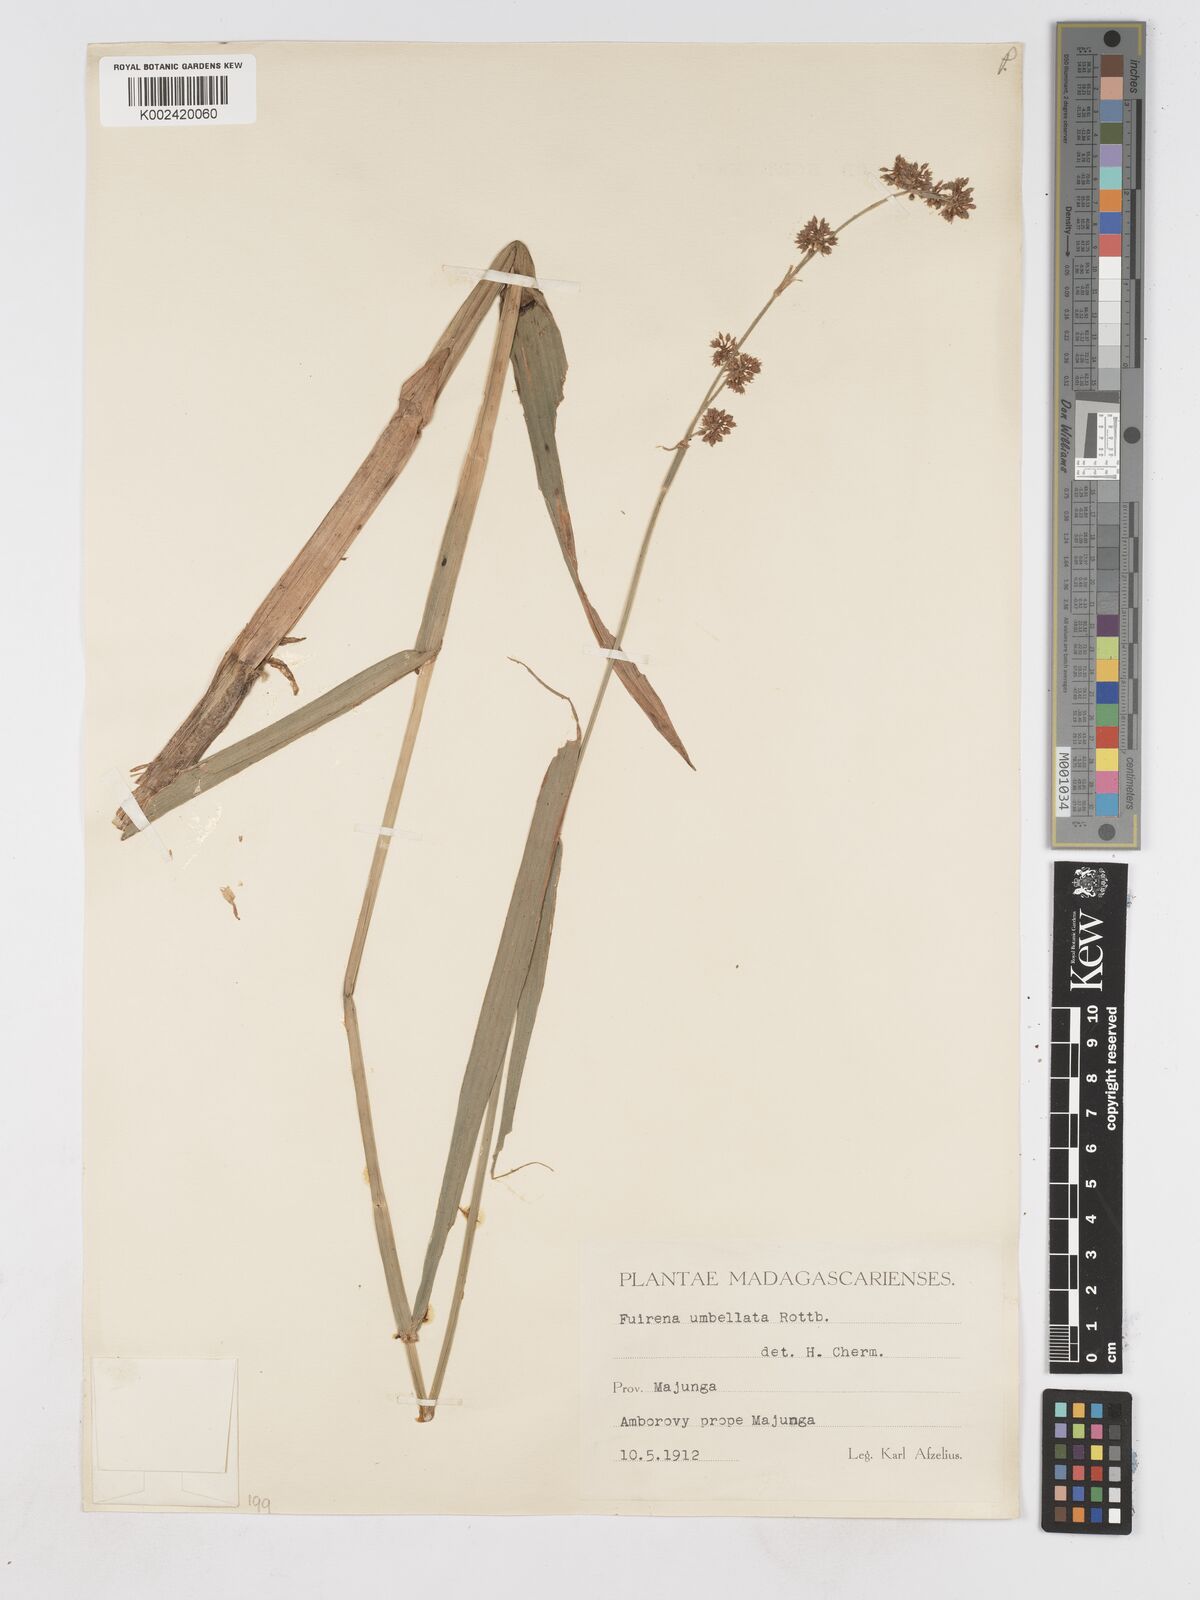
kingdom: Plantae
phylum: Tracheophyta
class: Liliopsida
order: Poales
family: Cyperaceae
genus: Fuirena
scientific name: Fuirena umbellata
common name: Yefen
